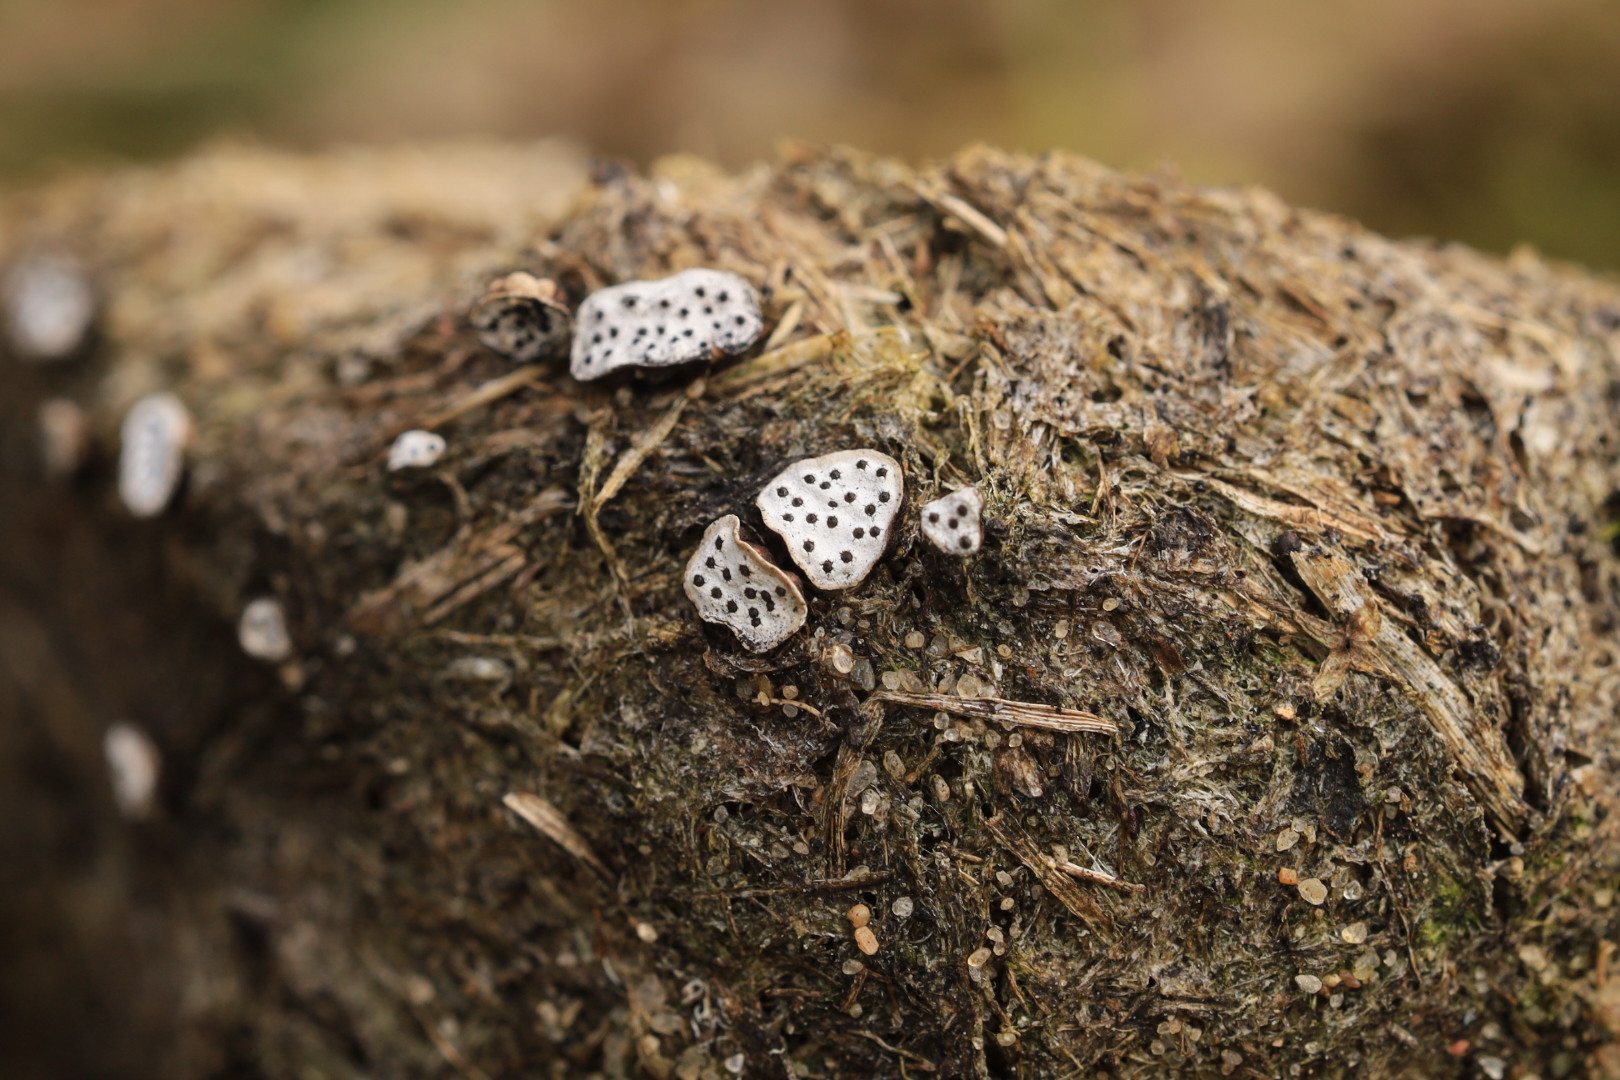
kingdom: Fungi
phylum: Ascomycota
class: Sordariomycetes
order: Xylariales
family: Xylariaceae
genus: Poronia
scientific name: Poronia punctata
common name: stor priksvamp
